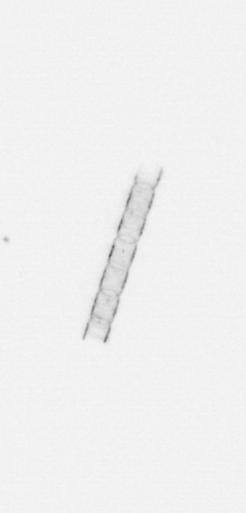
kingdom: Chromista
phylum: Ochrophyta
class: Bacillariophyceae
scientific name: Bacillariophyceae
